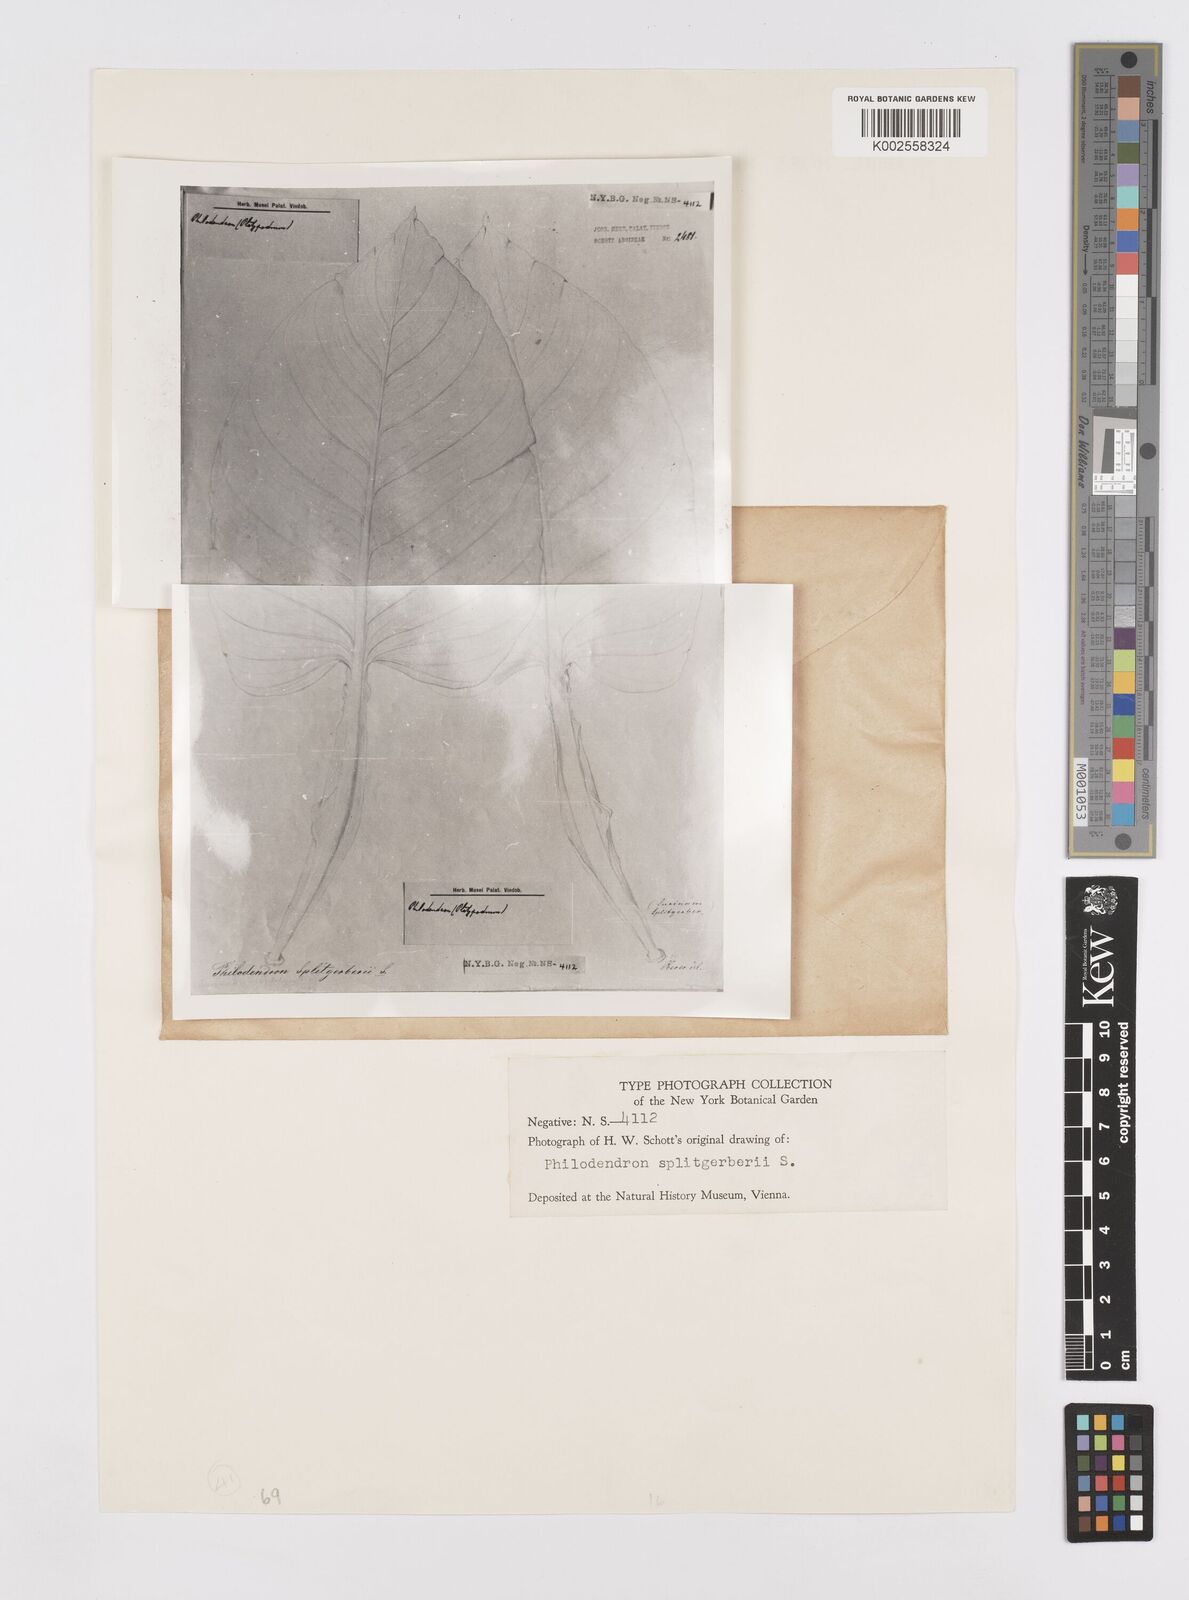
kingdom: Plantae
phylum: Tracheophyta
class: Liliopsida
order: Alismatales
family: Araceae
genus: Philodendron
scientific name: Philodendron splitgerberi
